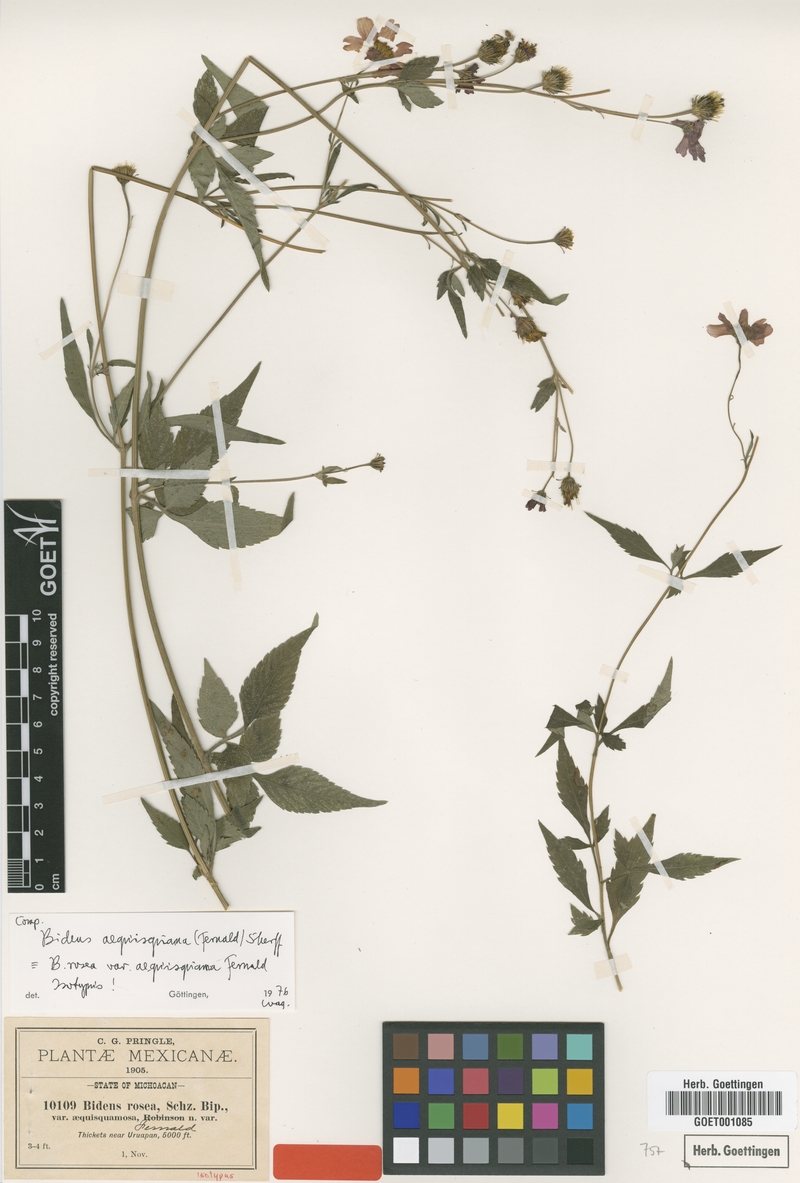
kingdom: Plantae
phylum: Tracheophyta
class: Magnoliopsida
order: Asterales
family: Asteraceae
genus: Bidens
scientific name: Bidens aequisquama
